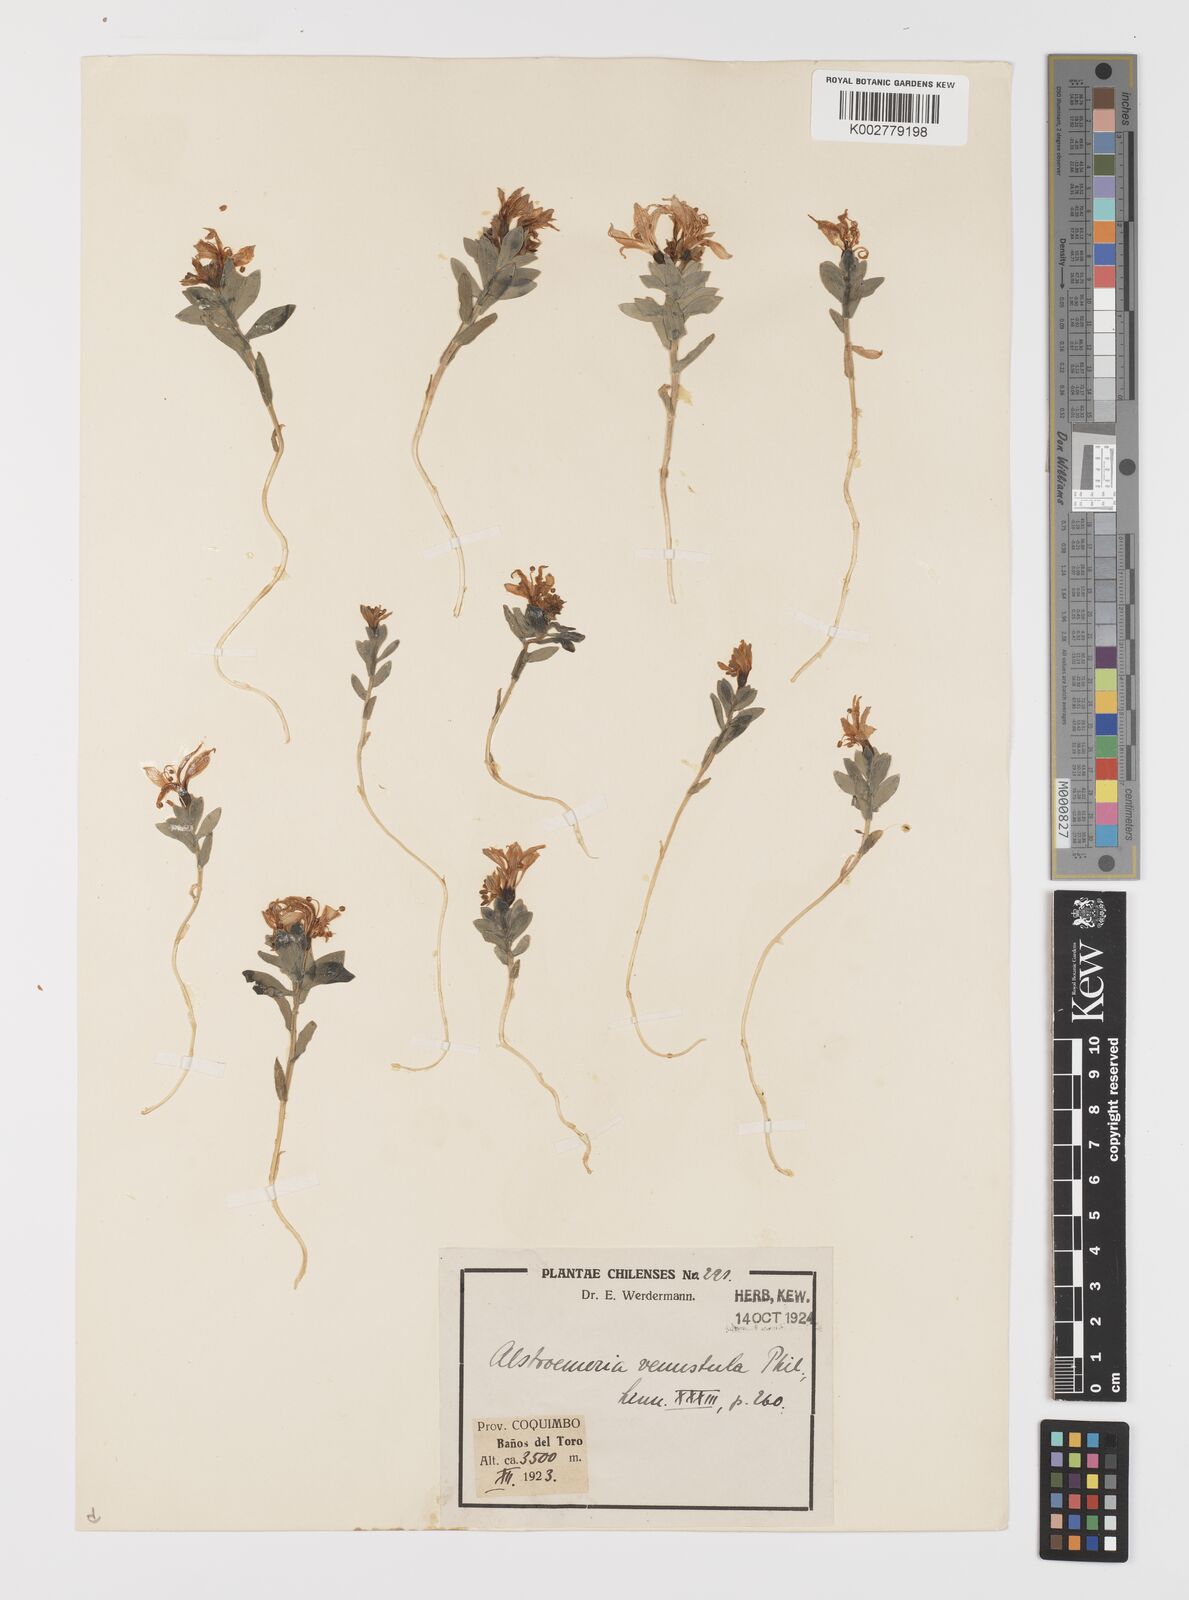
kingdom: Plantae
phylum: Tracheophyta
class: Liliopsida
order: Liliales
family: Alstroemeriaceae
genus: Alstroemeria
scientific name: Alstroemeria andina
